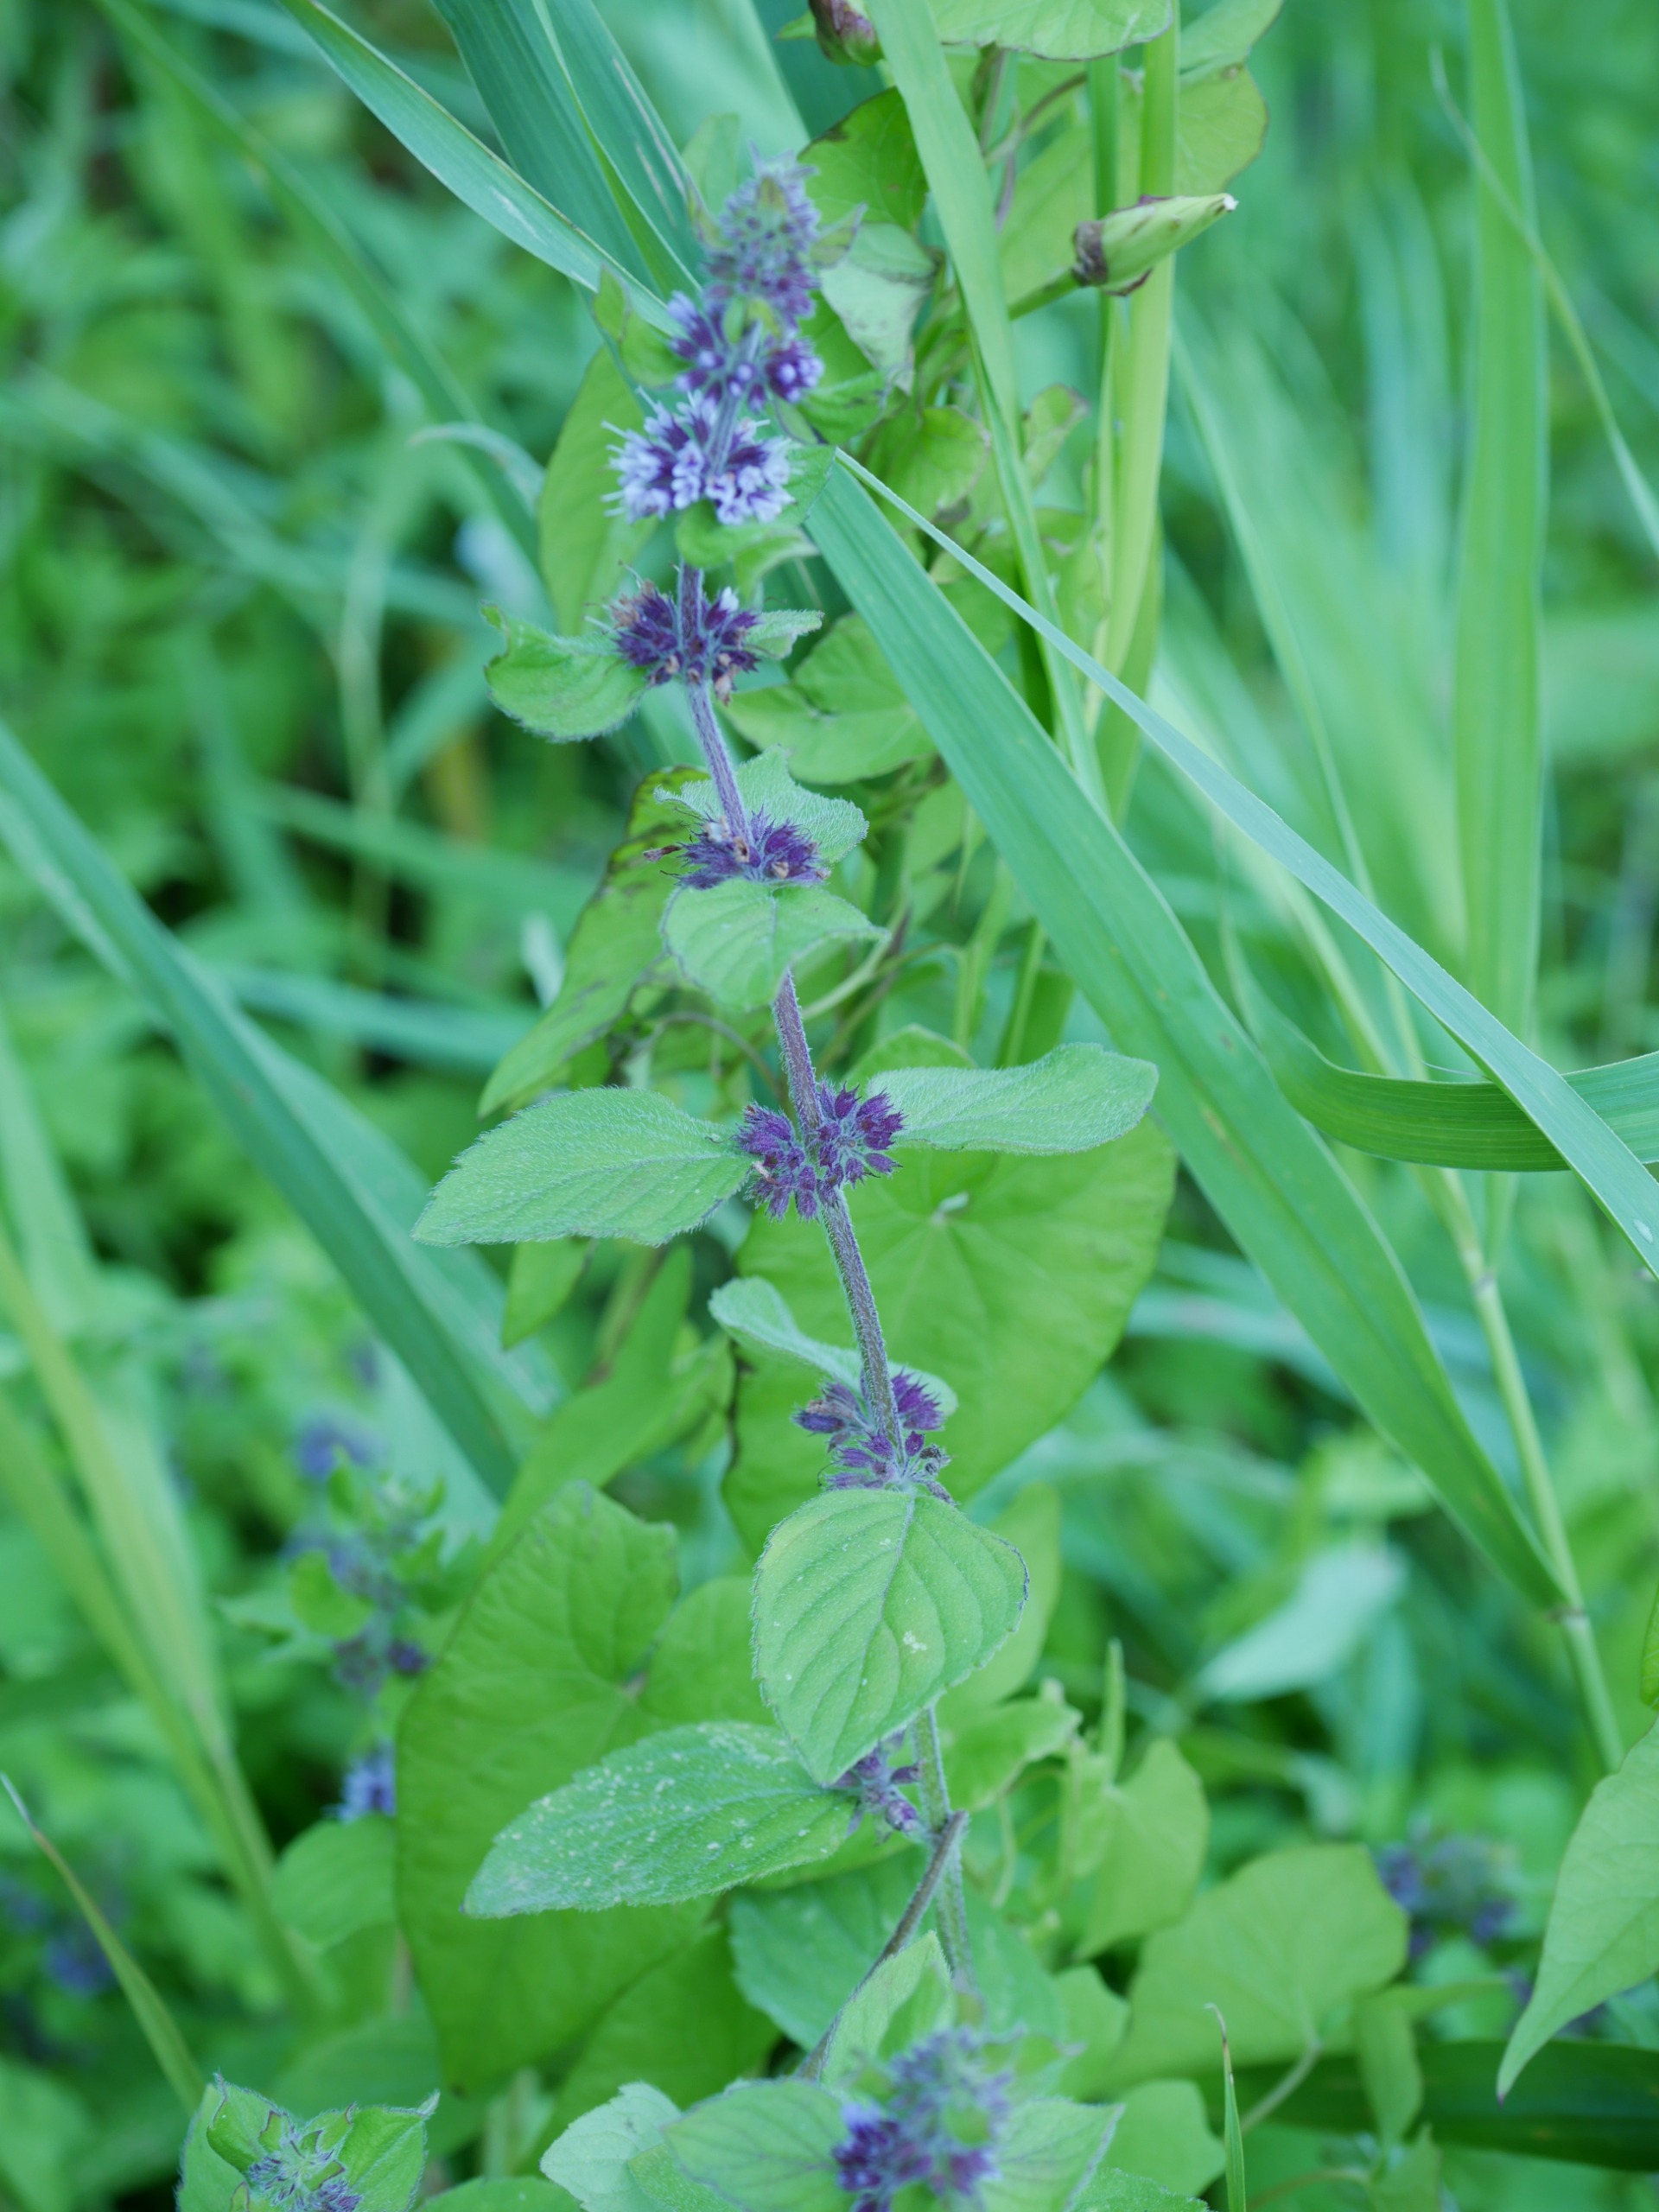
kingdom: Plantae
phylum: Tracheophyta
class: Magnoliopsida
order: Lamiales
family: Lamiaceae
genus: Mentha
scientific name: Mentha verticillata
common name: Krans-mynte
